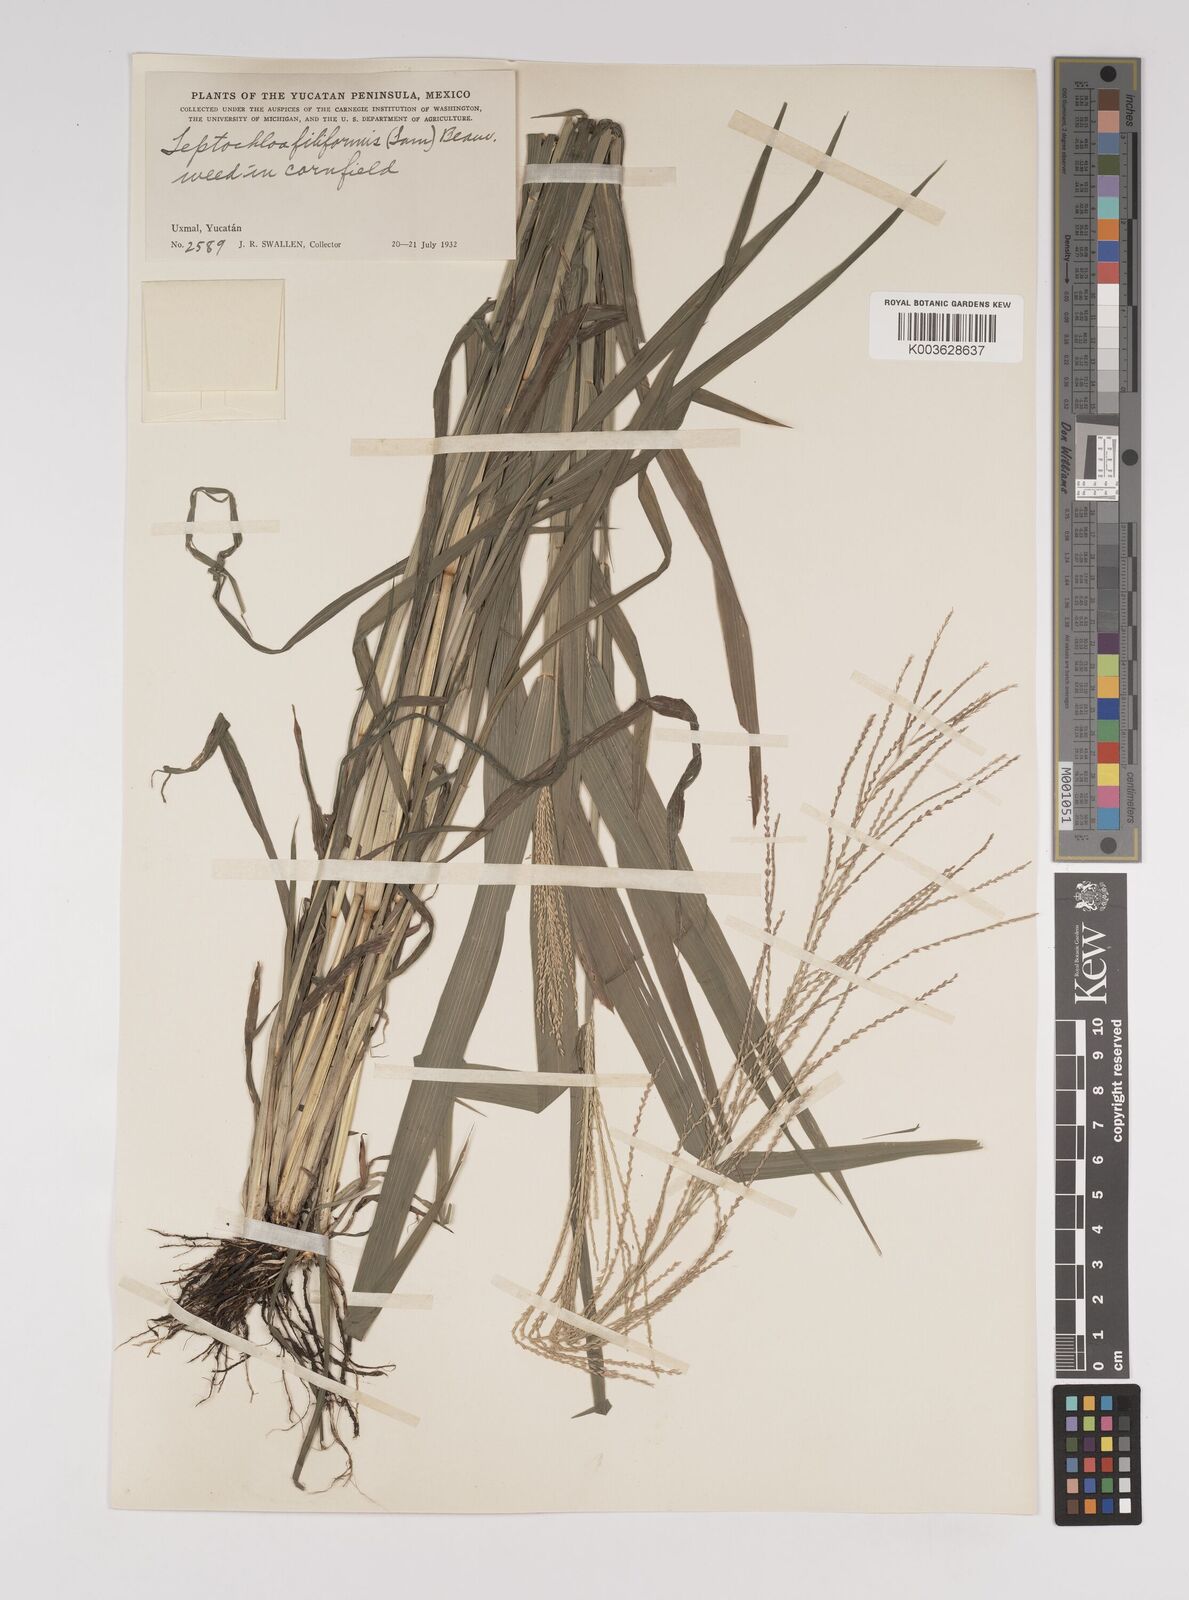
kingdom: Plantae
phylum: Tracheophyta
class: Liliopsida
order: Poales
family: Poaceae
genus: Leptochloa
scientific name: Leptochloa panicea
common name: Mucronate sprangletop
